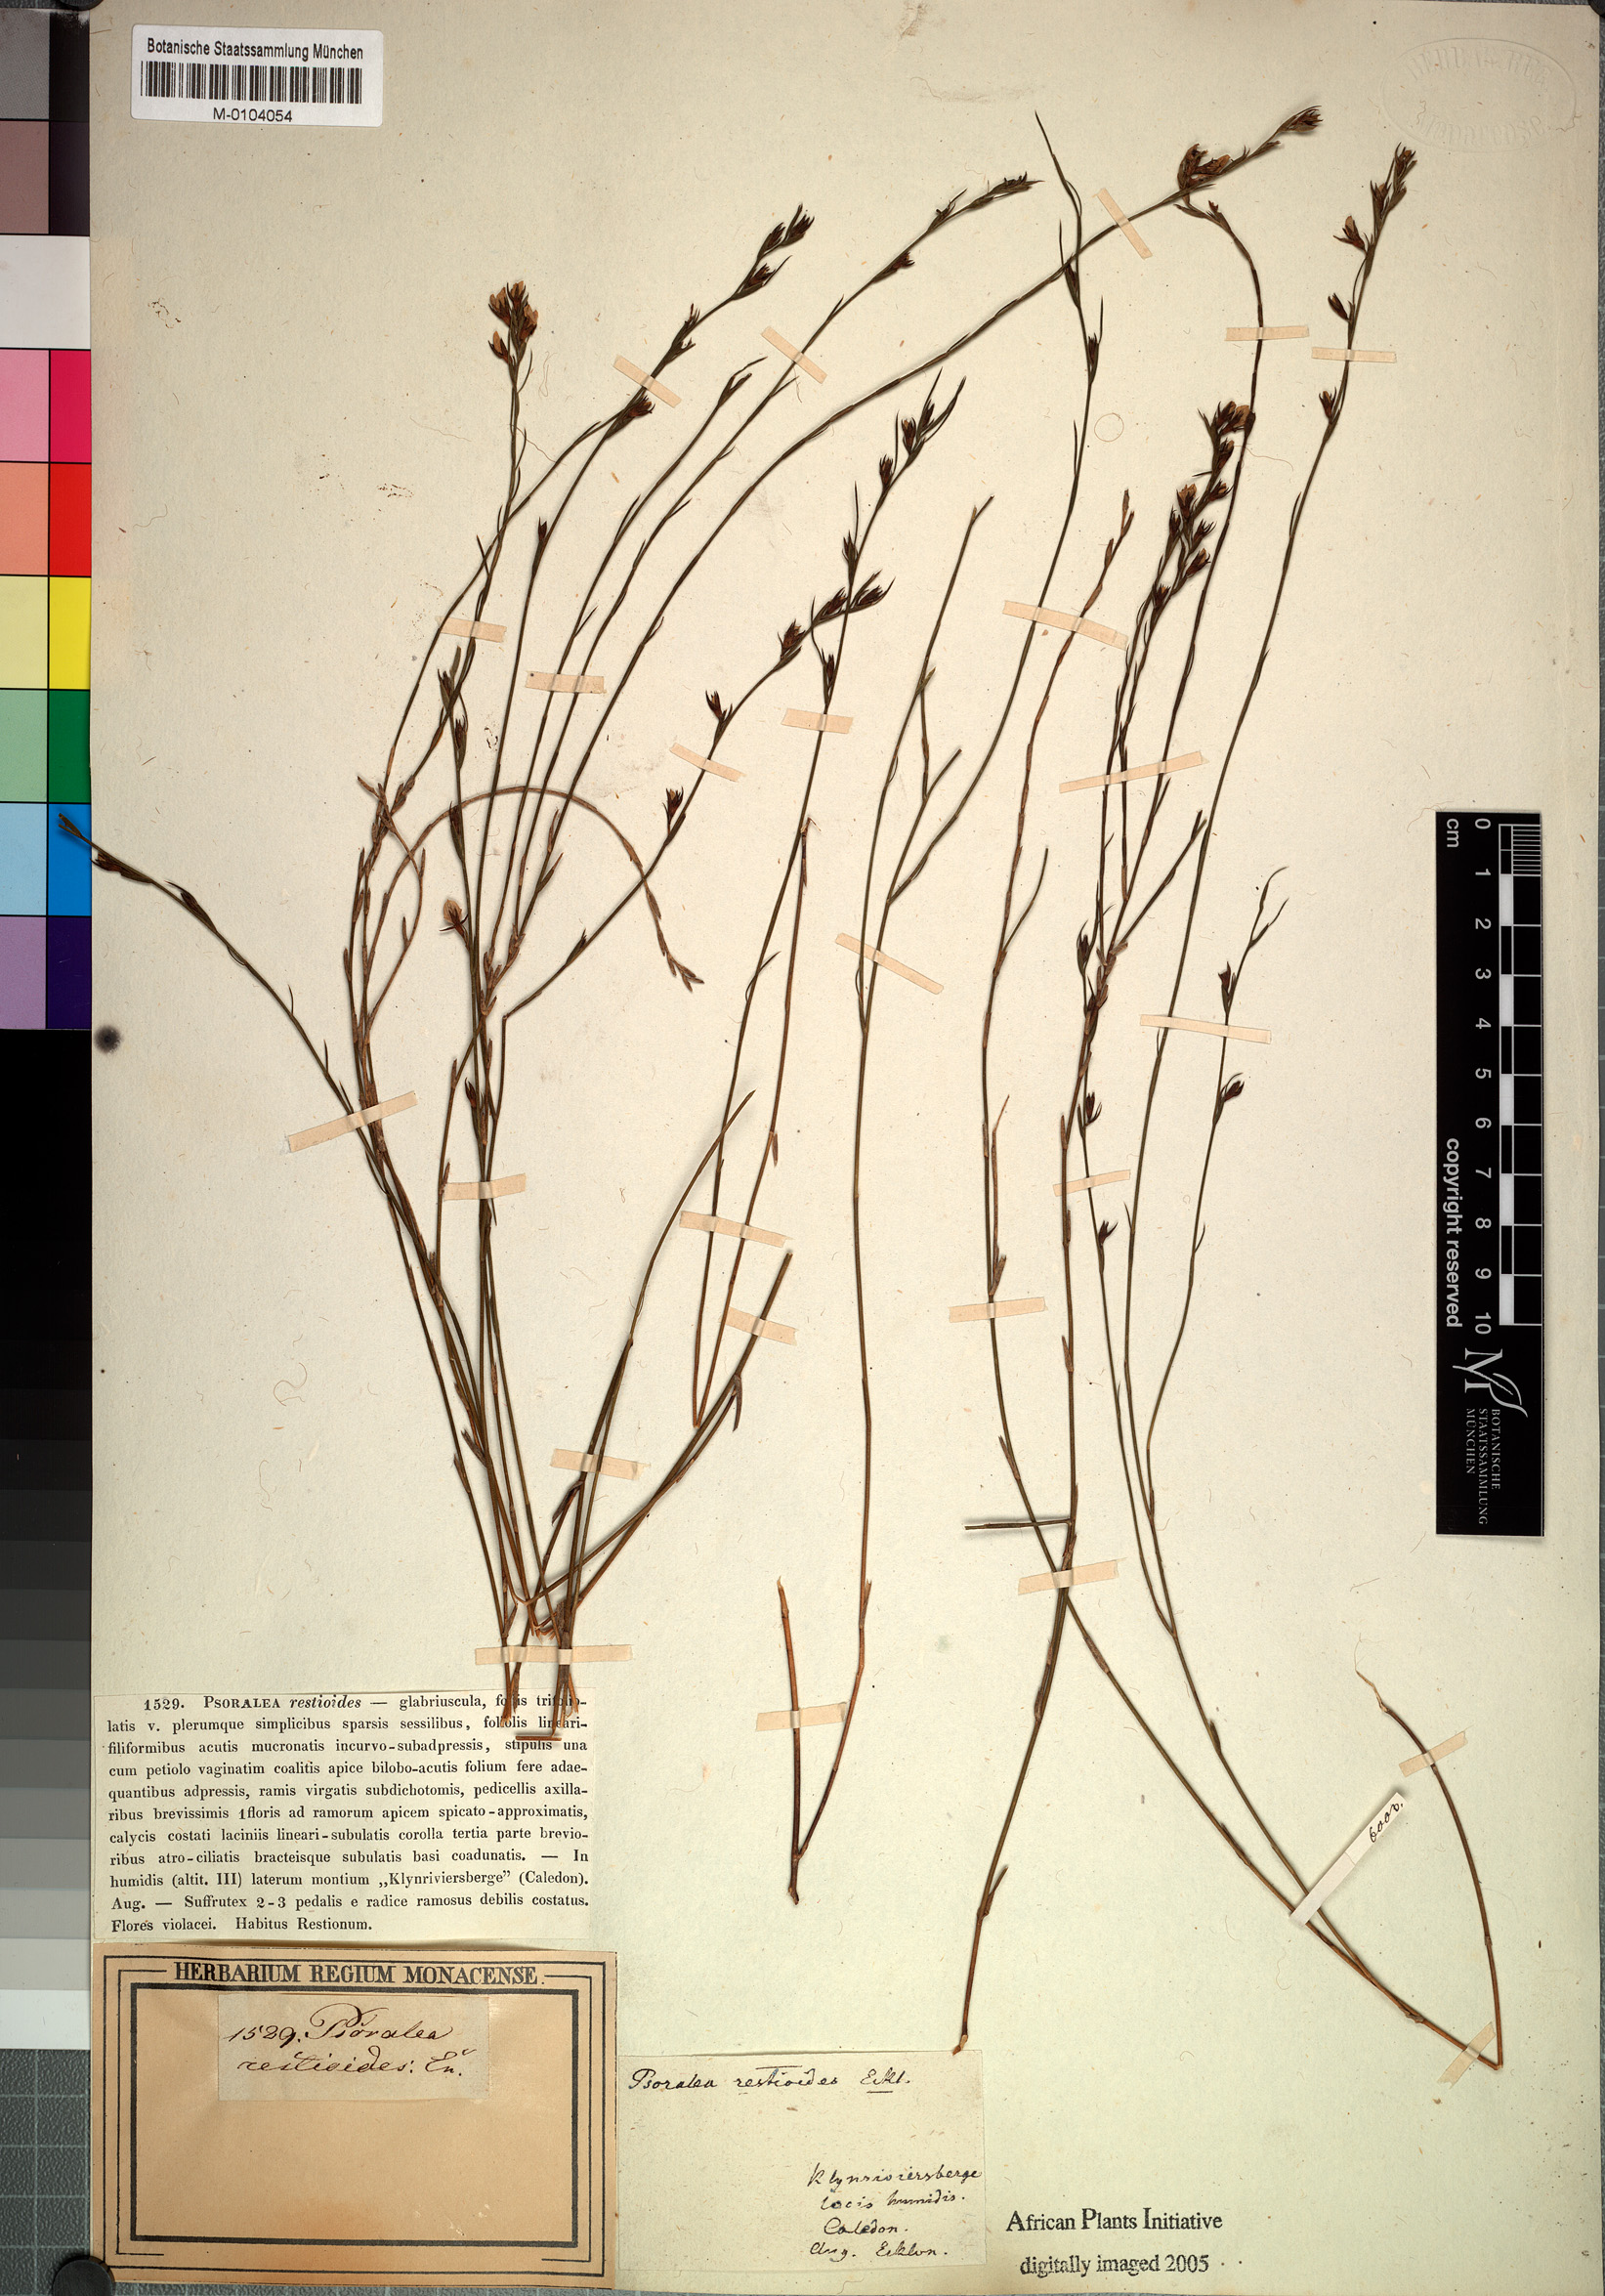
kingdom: Plantae
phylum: Tracheophyta
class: Magnoliopsida
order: Fabales
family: Fabaceae
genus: Psoralea
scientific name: Psoralea restioides
